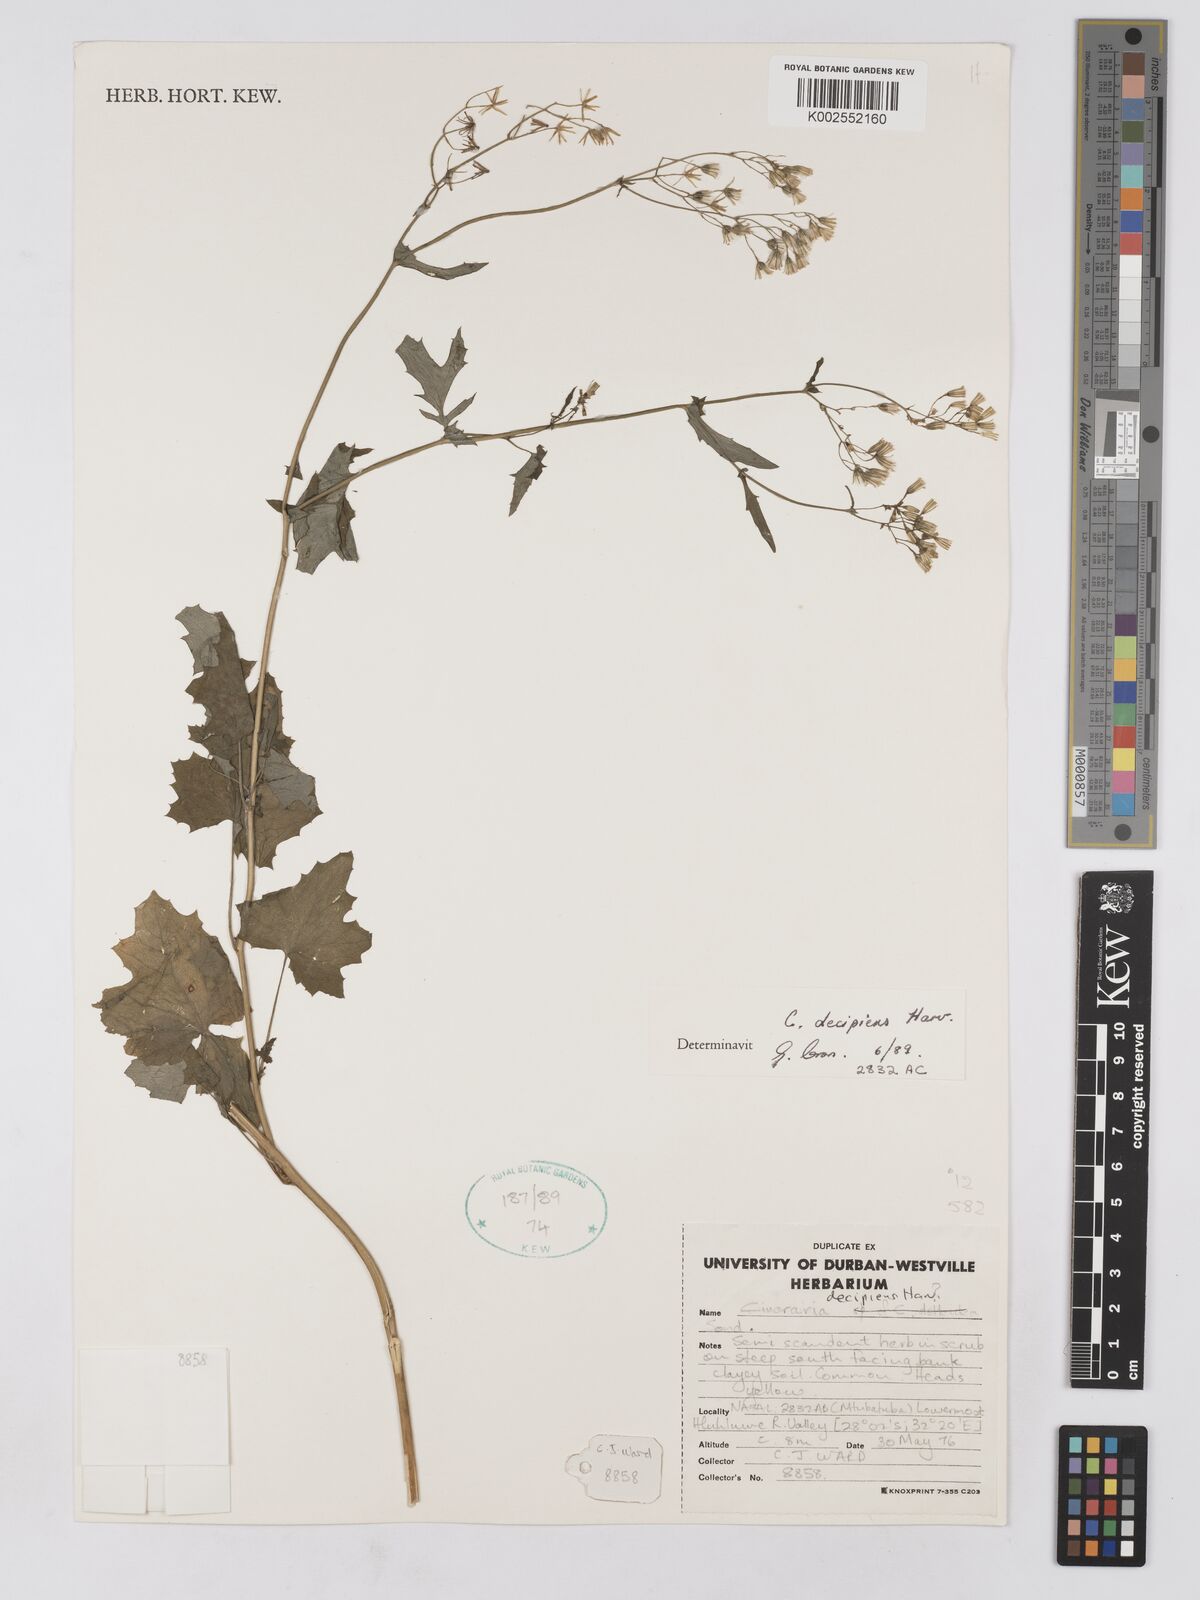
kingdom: Plantae
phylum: Tracheophyta
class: Magnoliopsida
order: Asterales
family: Asteraceae
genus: Cineraria
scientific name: Cineraria decipiens
